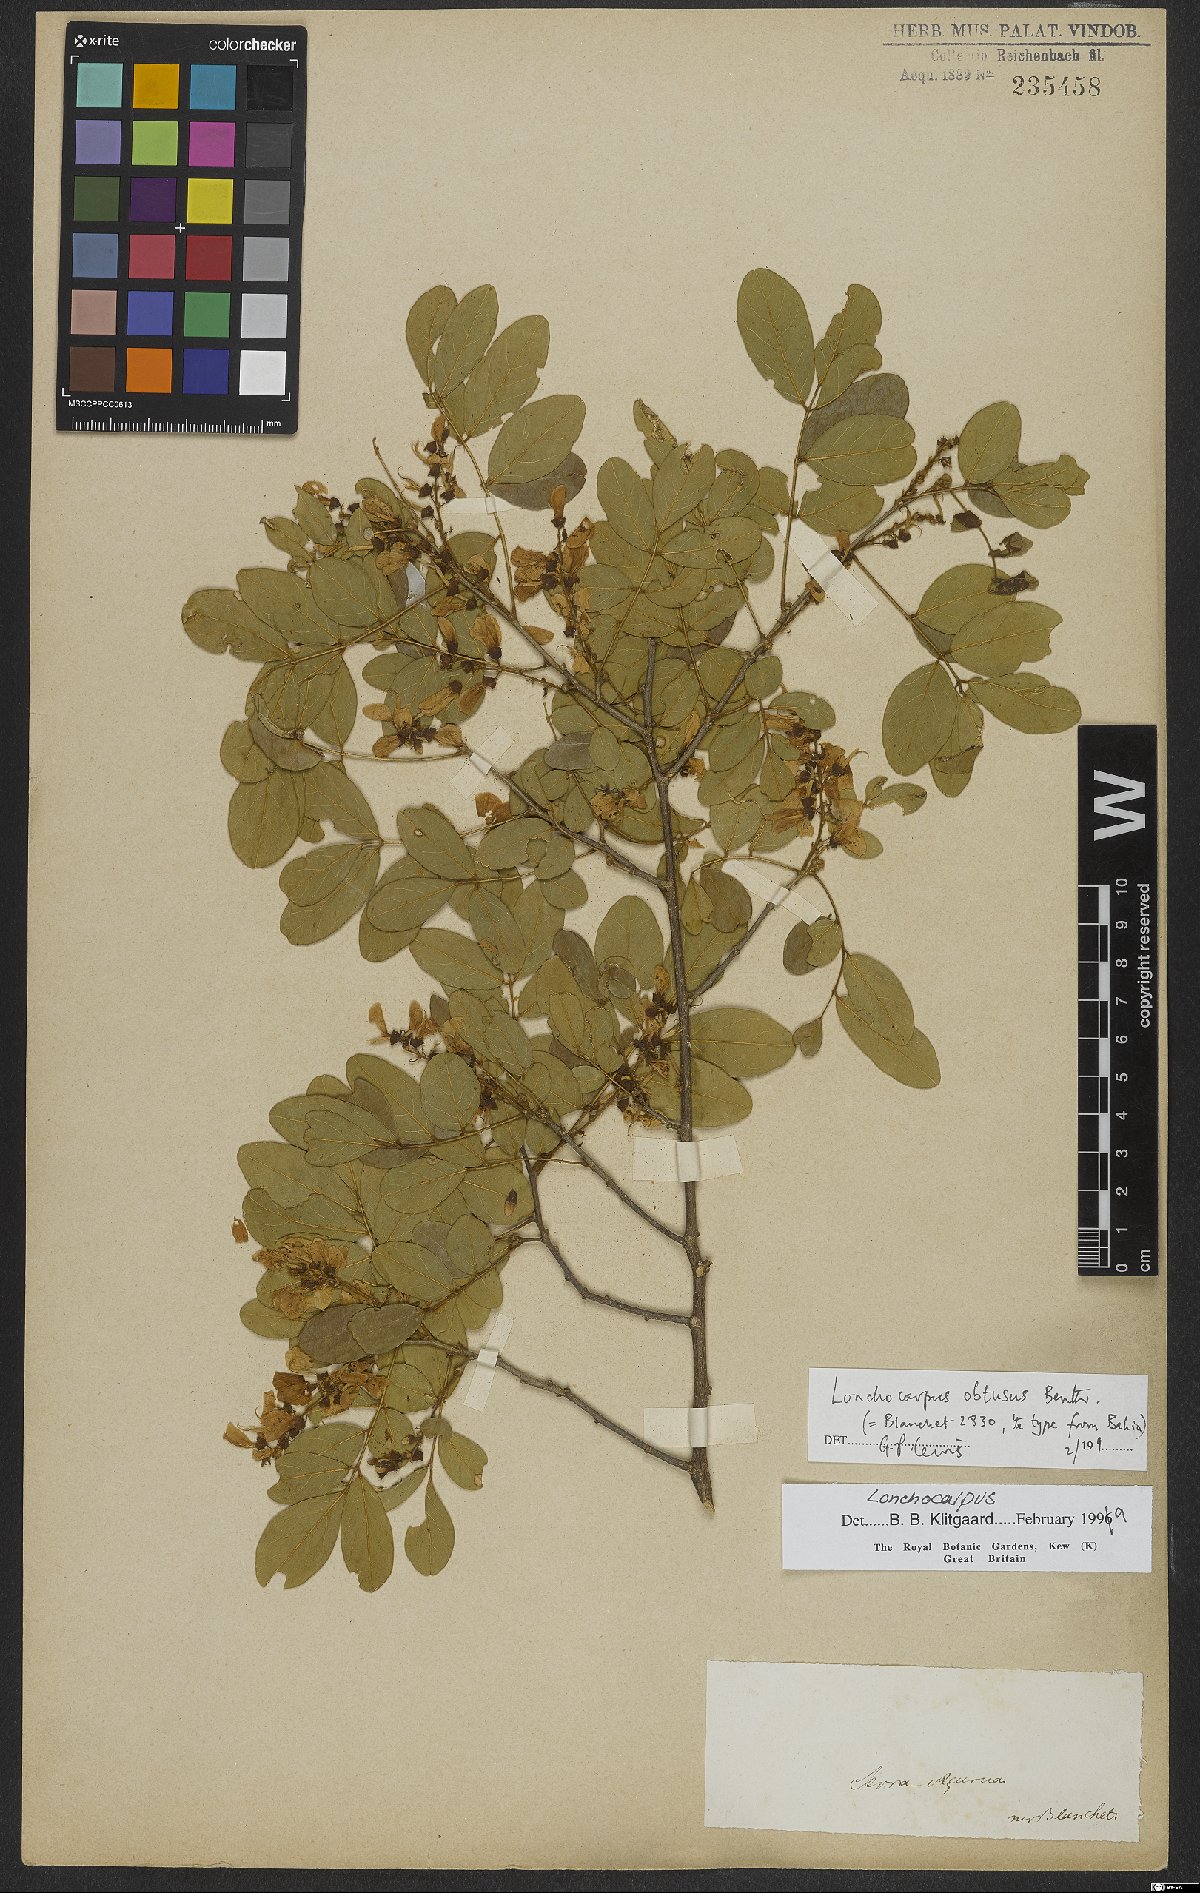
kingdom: Plantae
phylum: Tracheophyta
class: Magnoliopsida
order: Fabales
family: Fabaceae
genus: Muellera
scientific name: Muellera obtusa
